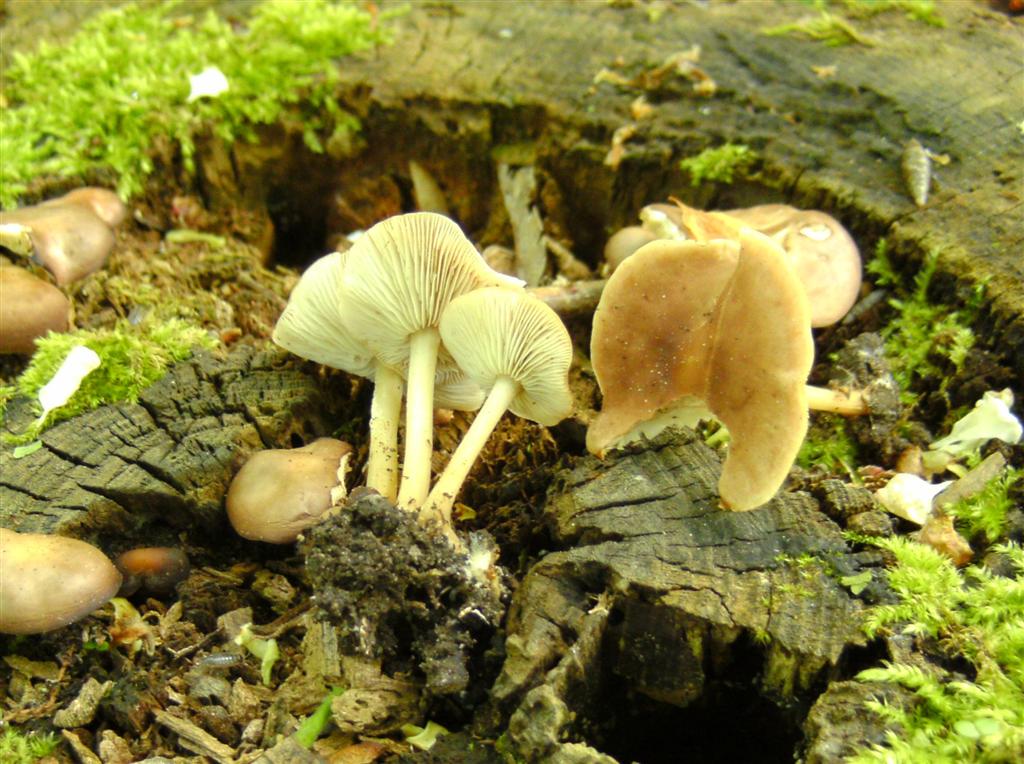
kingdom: Fungi
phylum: Basidiomycota
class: Agaricomycetes
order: Agaricales
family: Omphalotaceae
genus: Gymnopus
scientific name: Gymnopus ocior
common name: mørk fladhat
